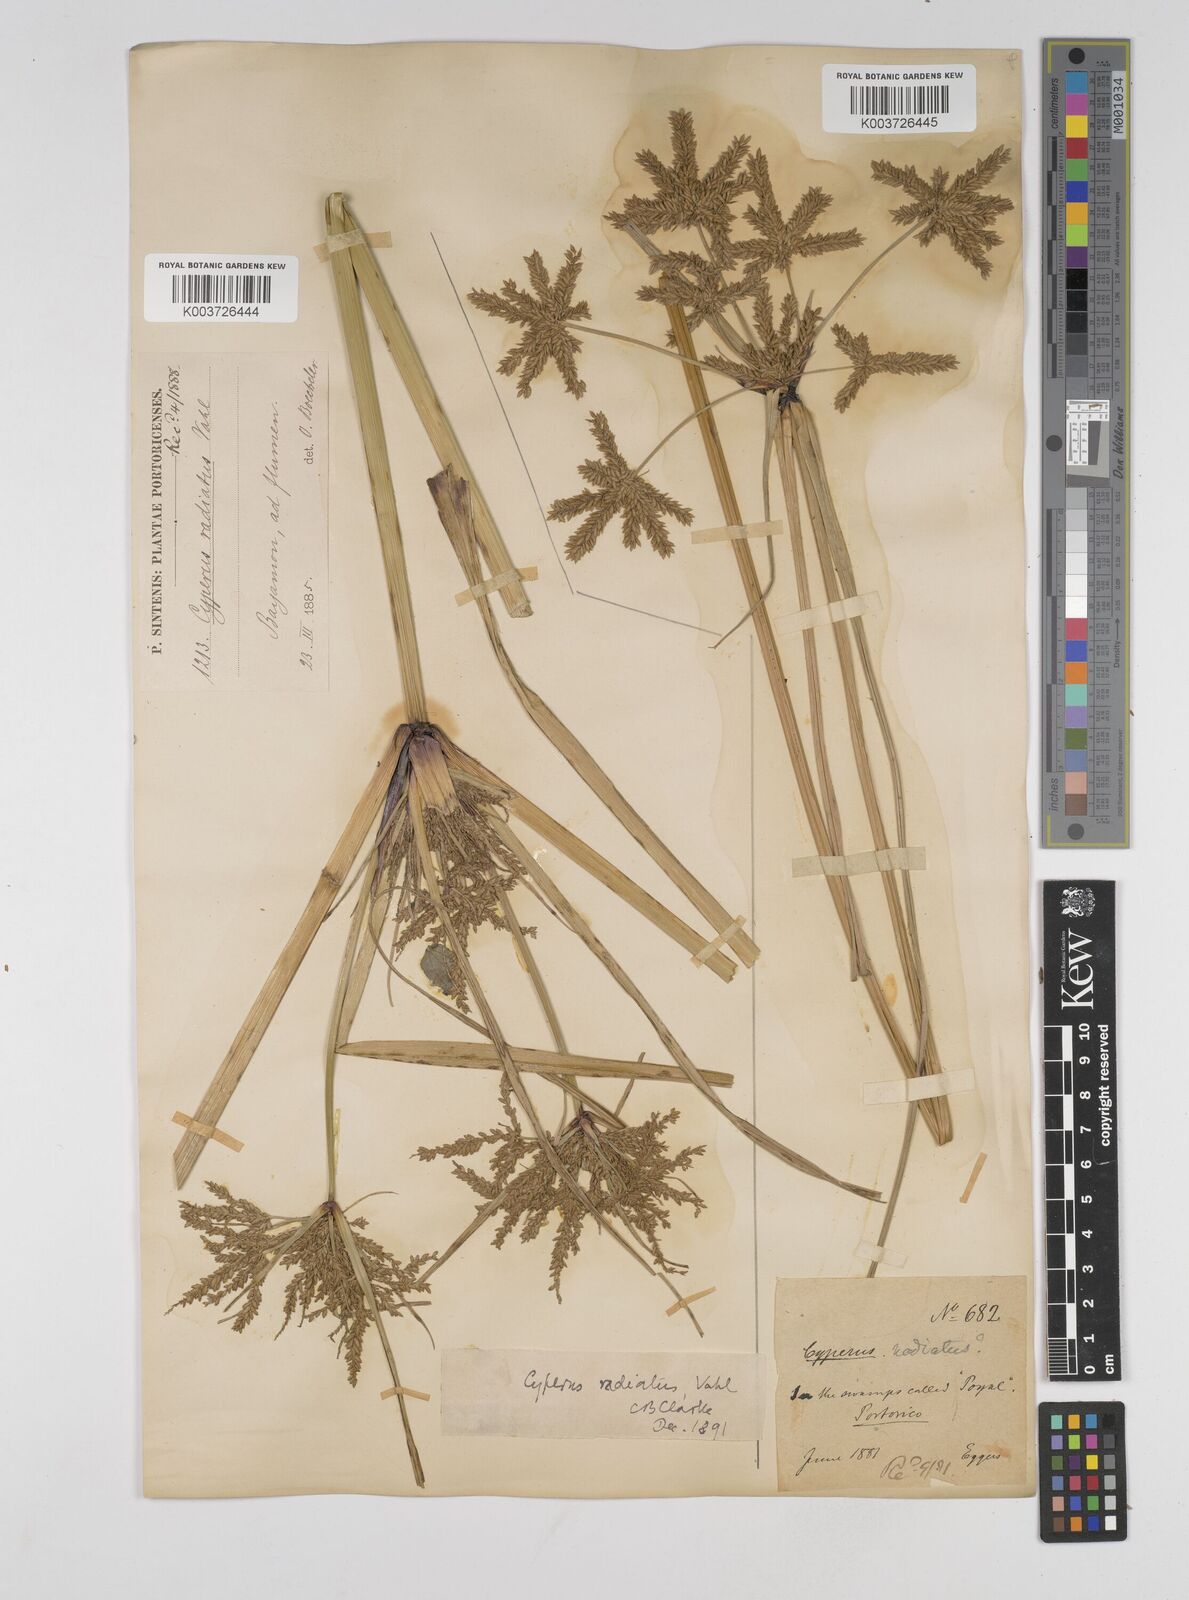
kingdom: Plantae
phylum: Tracheophyta
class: Liliopsida
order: Poales
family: Cyperaceae
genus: Cyperus
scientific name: Cyperus imbricatus
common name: Shingle flatsedge
